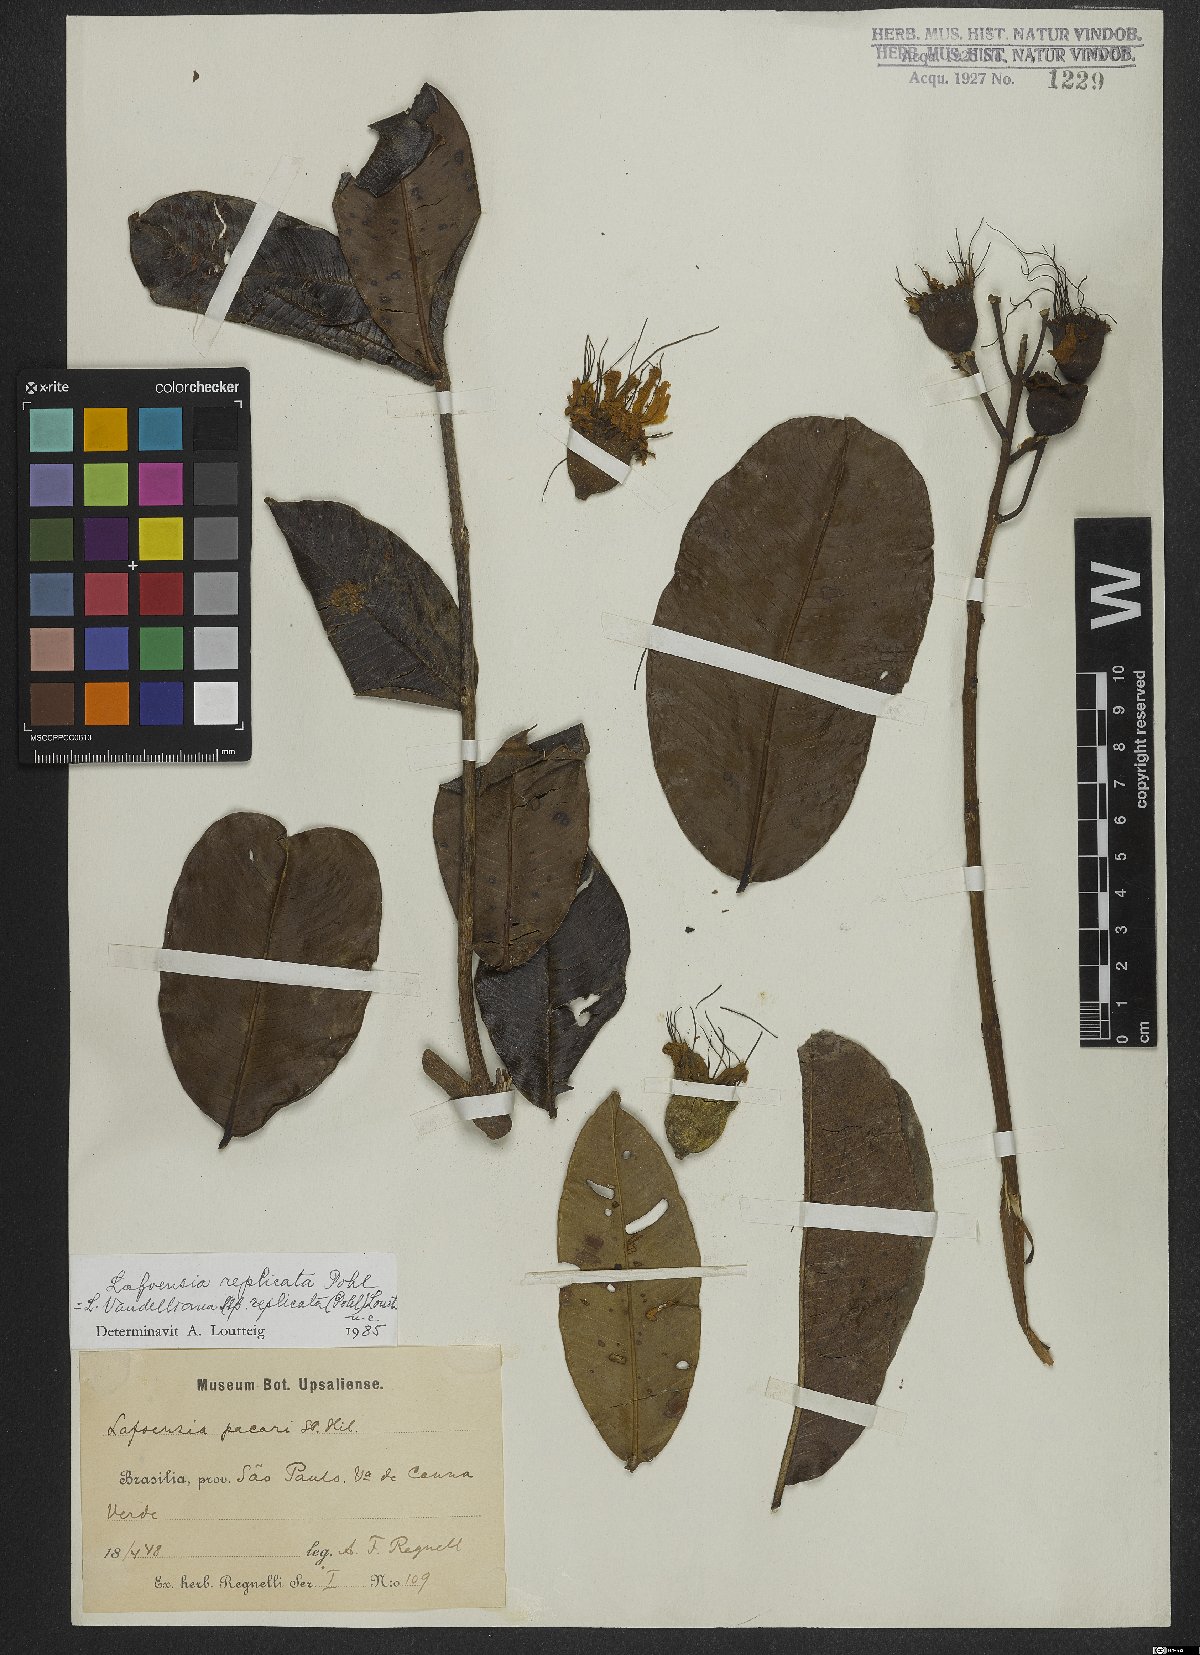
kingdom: Plantae
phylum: Tracheophyta
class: Magnoliopsida
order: Myrtales
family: Lythraceae
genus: Lafoensia
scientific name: Lafoensia vandelliana
